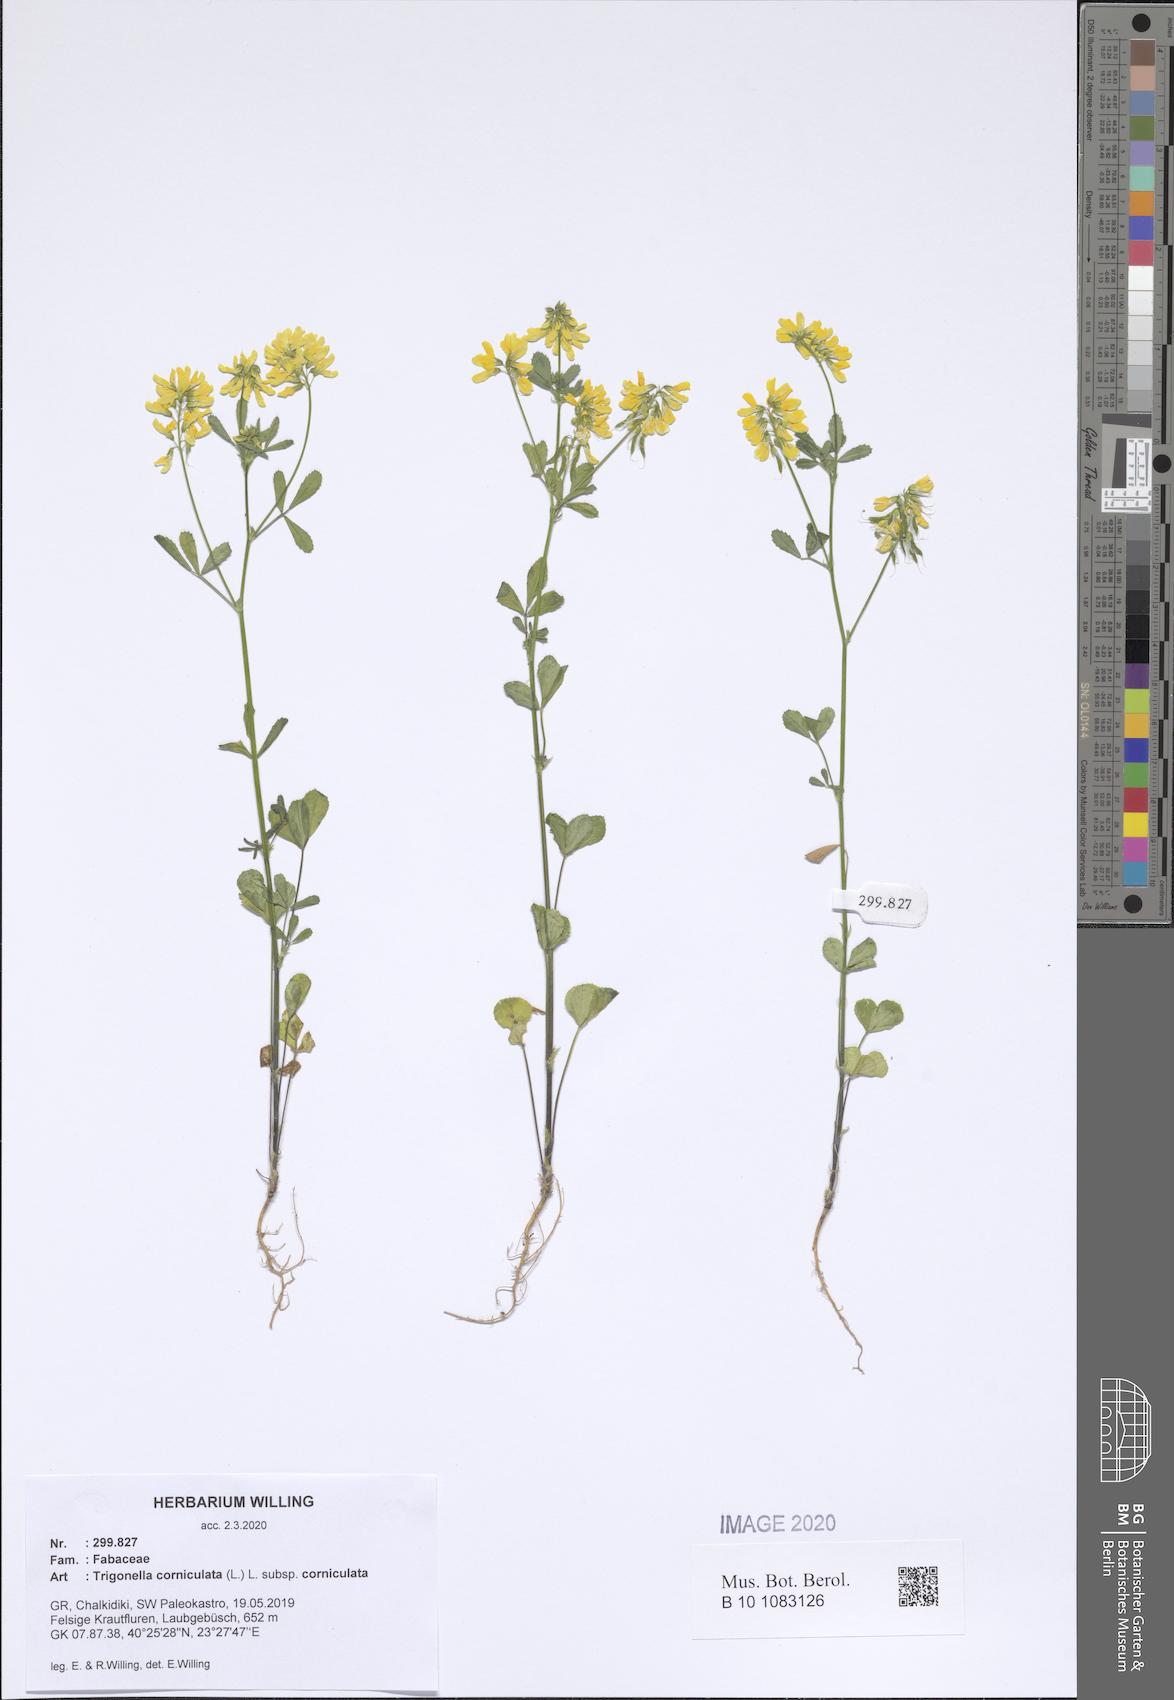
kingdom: Plantae
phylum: Tracheophyta
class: Magnoliopsida
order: Fabales
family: Fabaceae
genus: Trigonella
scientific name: Trigonella corniculata
